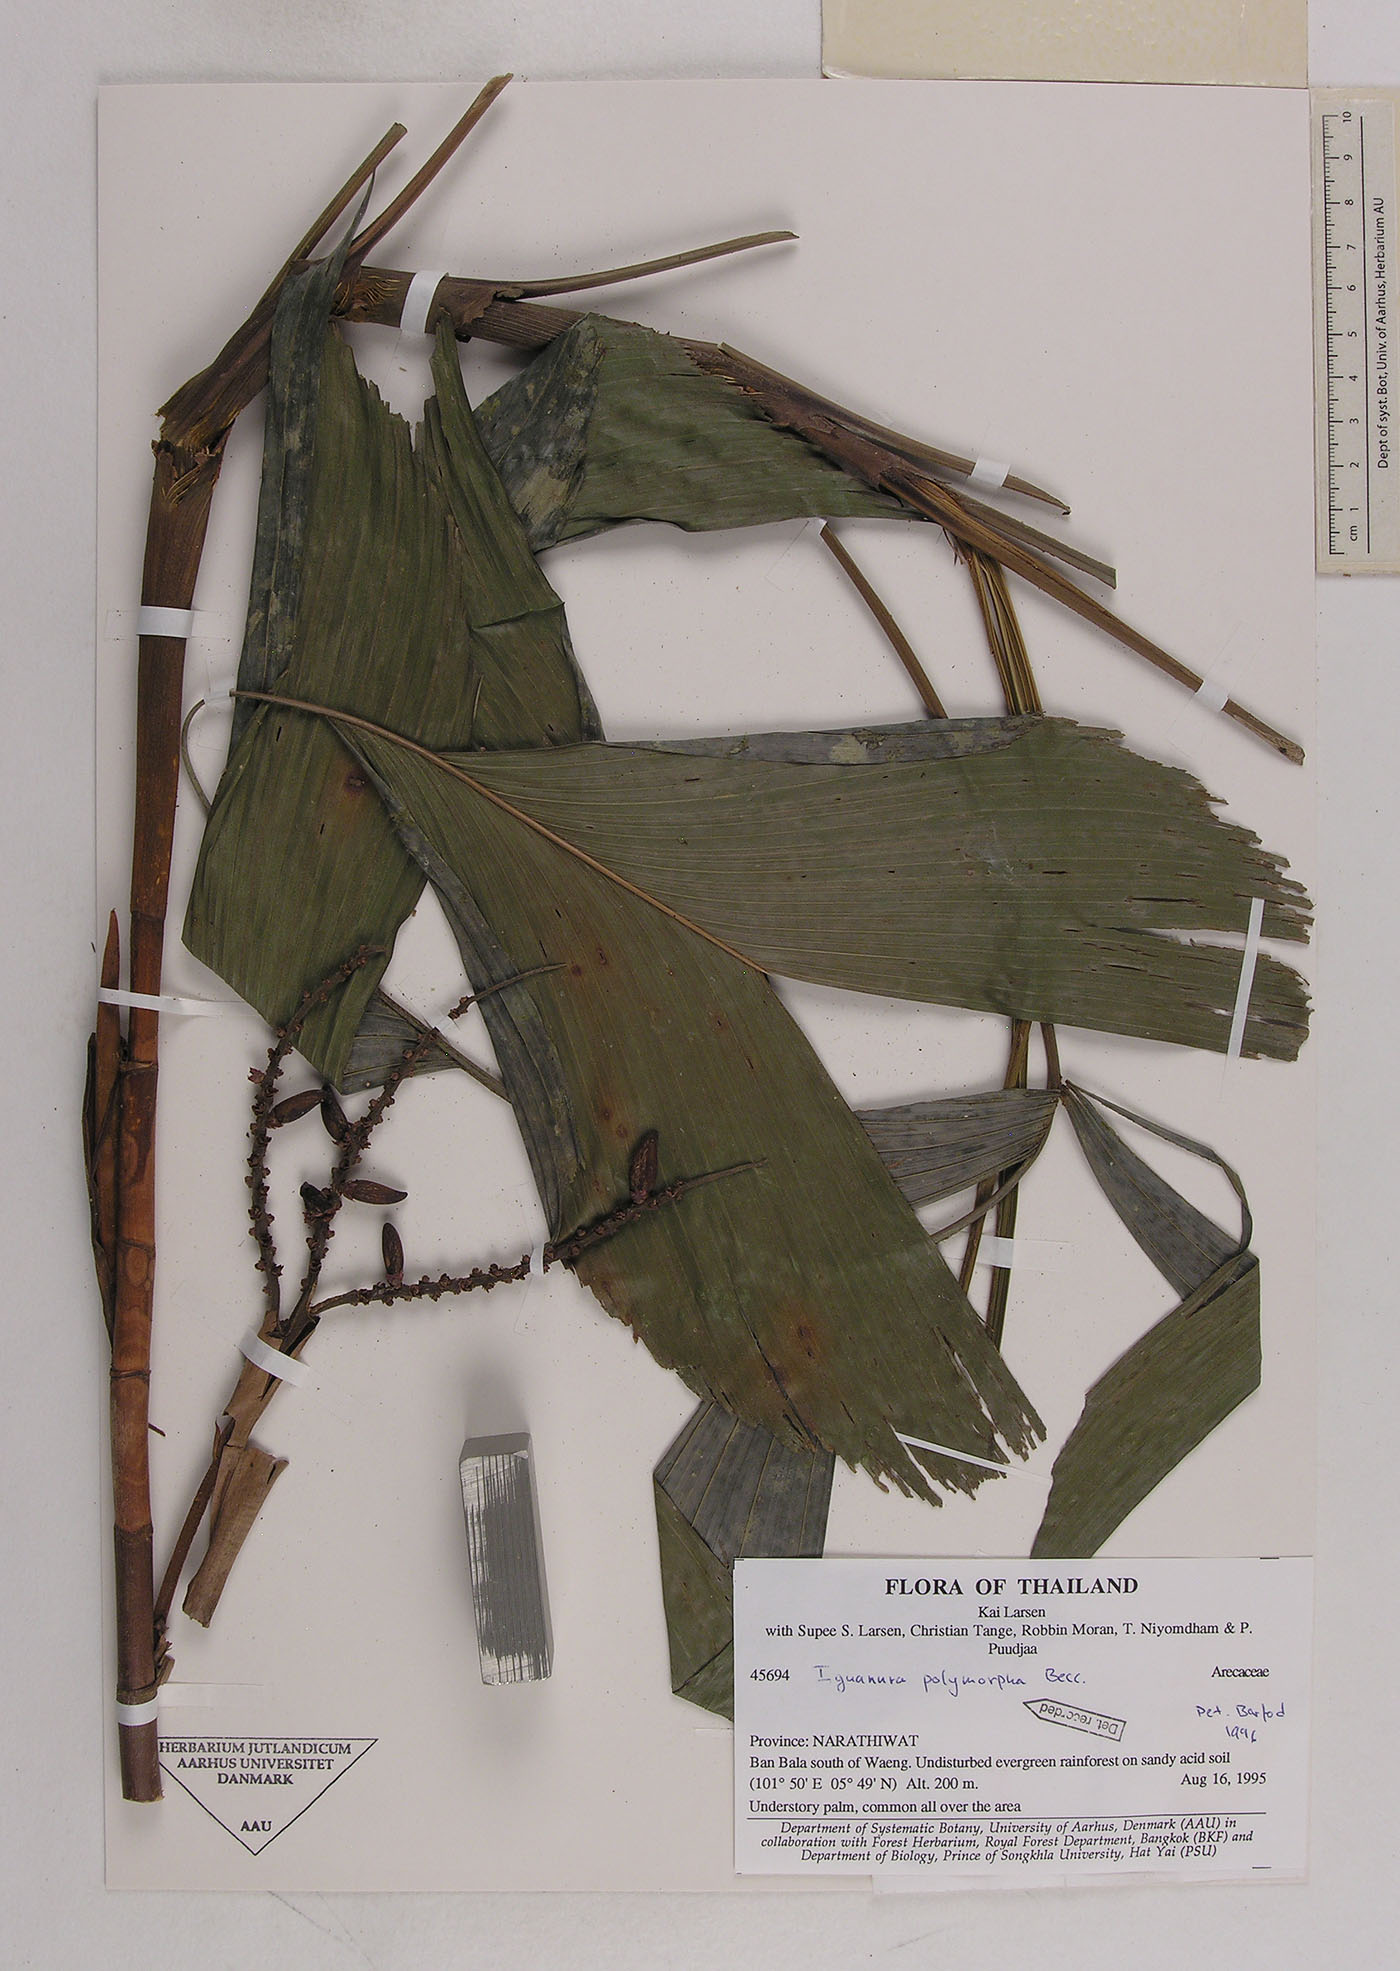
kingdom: Plantae
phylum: Tracheophyta
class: Liliopsida
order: Arecales
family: Arecaceae
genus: Iguanura
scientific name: Iguanura polymorpha
